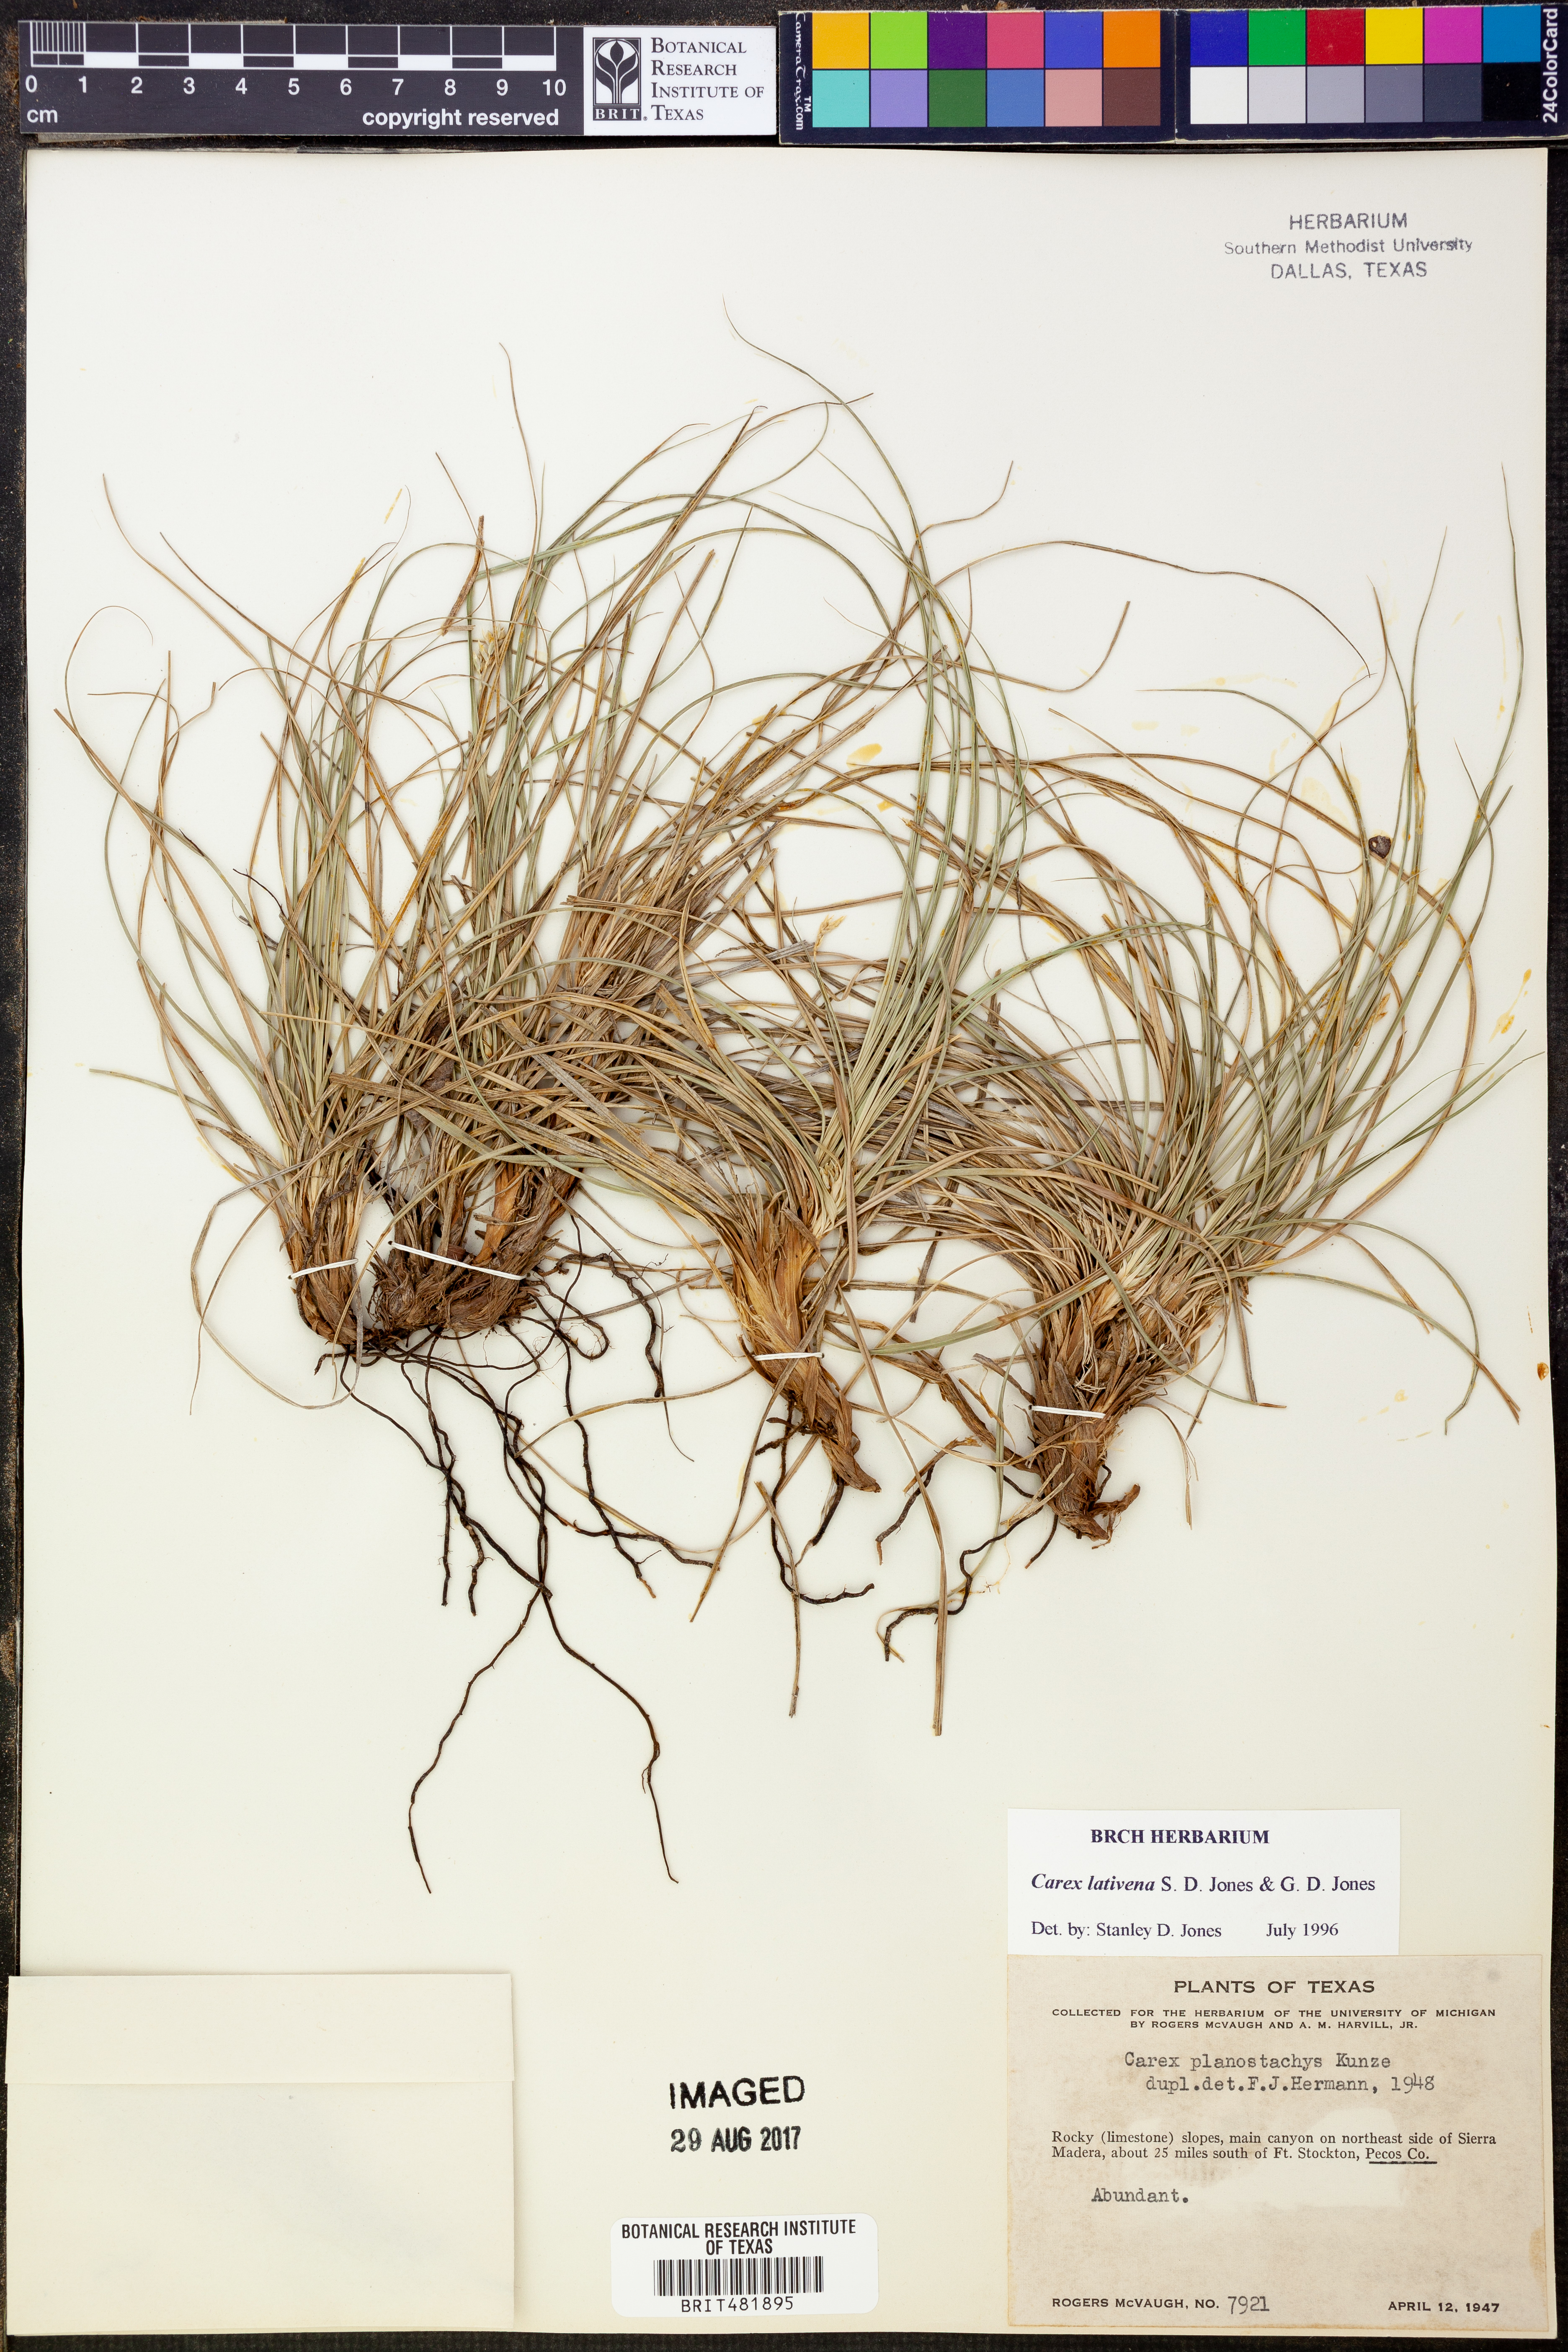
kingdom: Plantae
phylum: Tracheophyta
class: Liliopsida
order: Poales
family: Cyperaceae
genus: Carex
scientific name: Carex lativena
